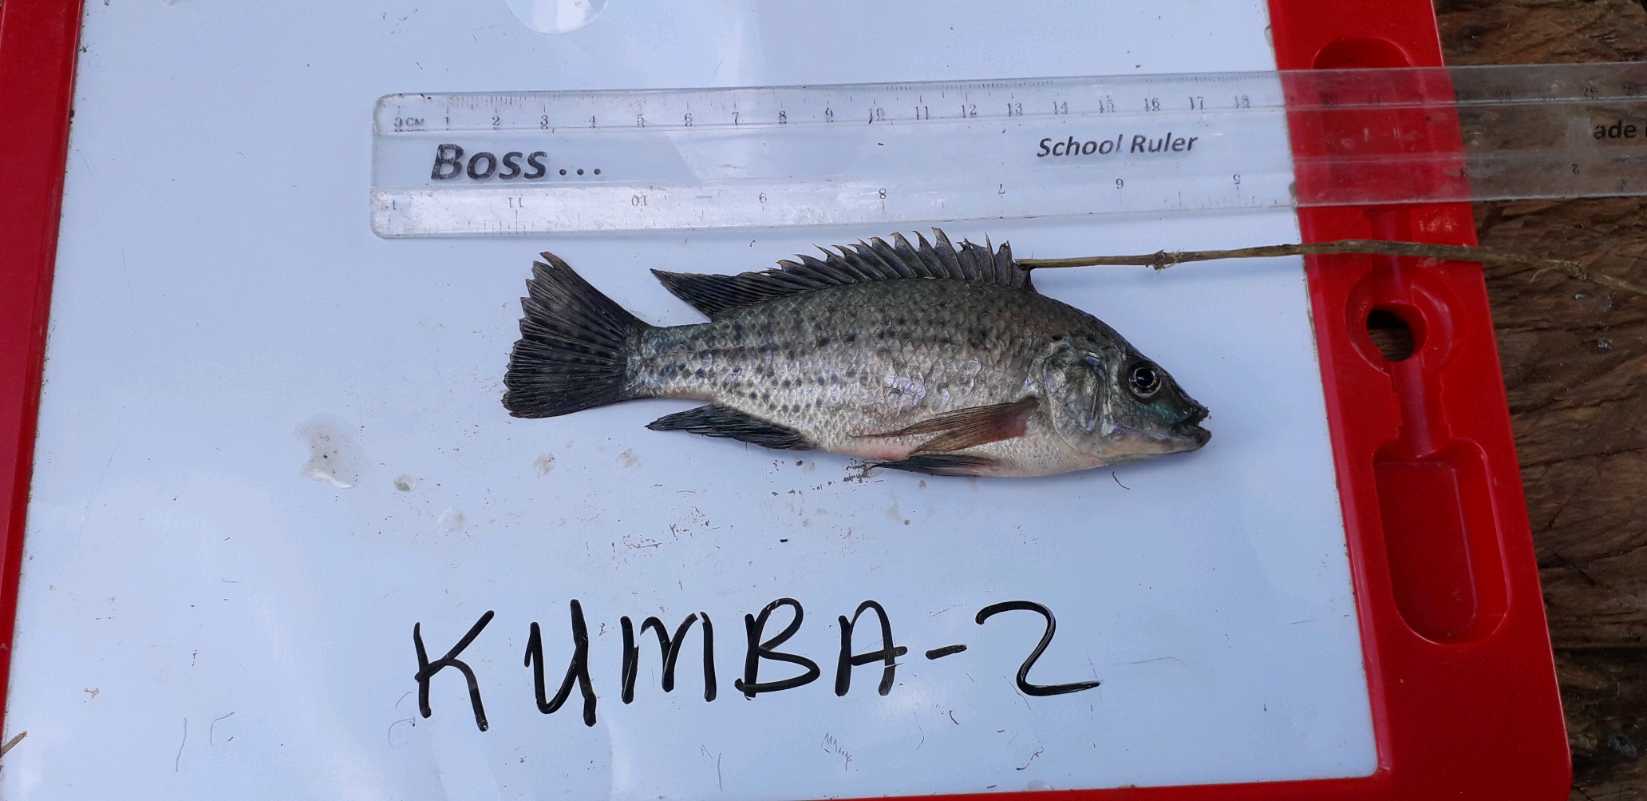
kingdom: Animalia
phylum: Chordata
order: Perciformes
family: Cichlidae
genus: Oreochromis
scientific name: Oreochromis jipe
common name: Jipe tilapia
